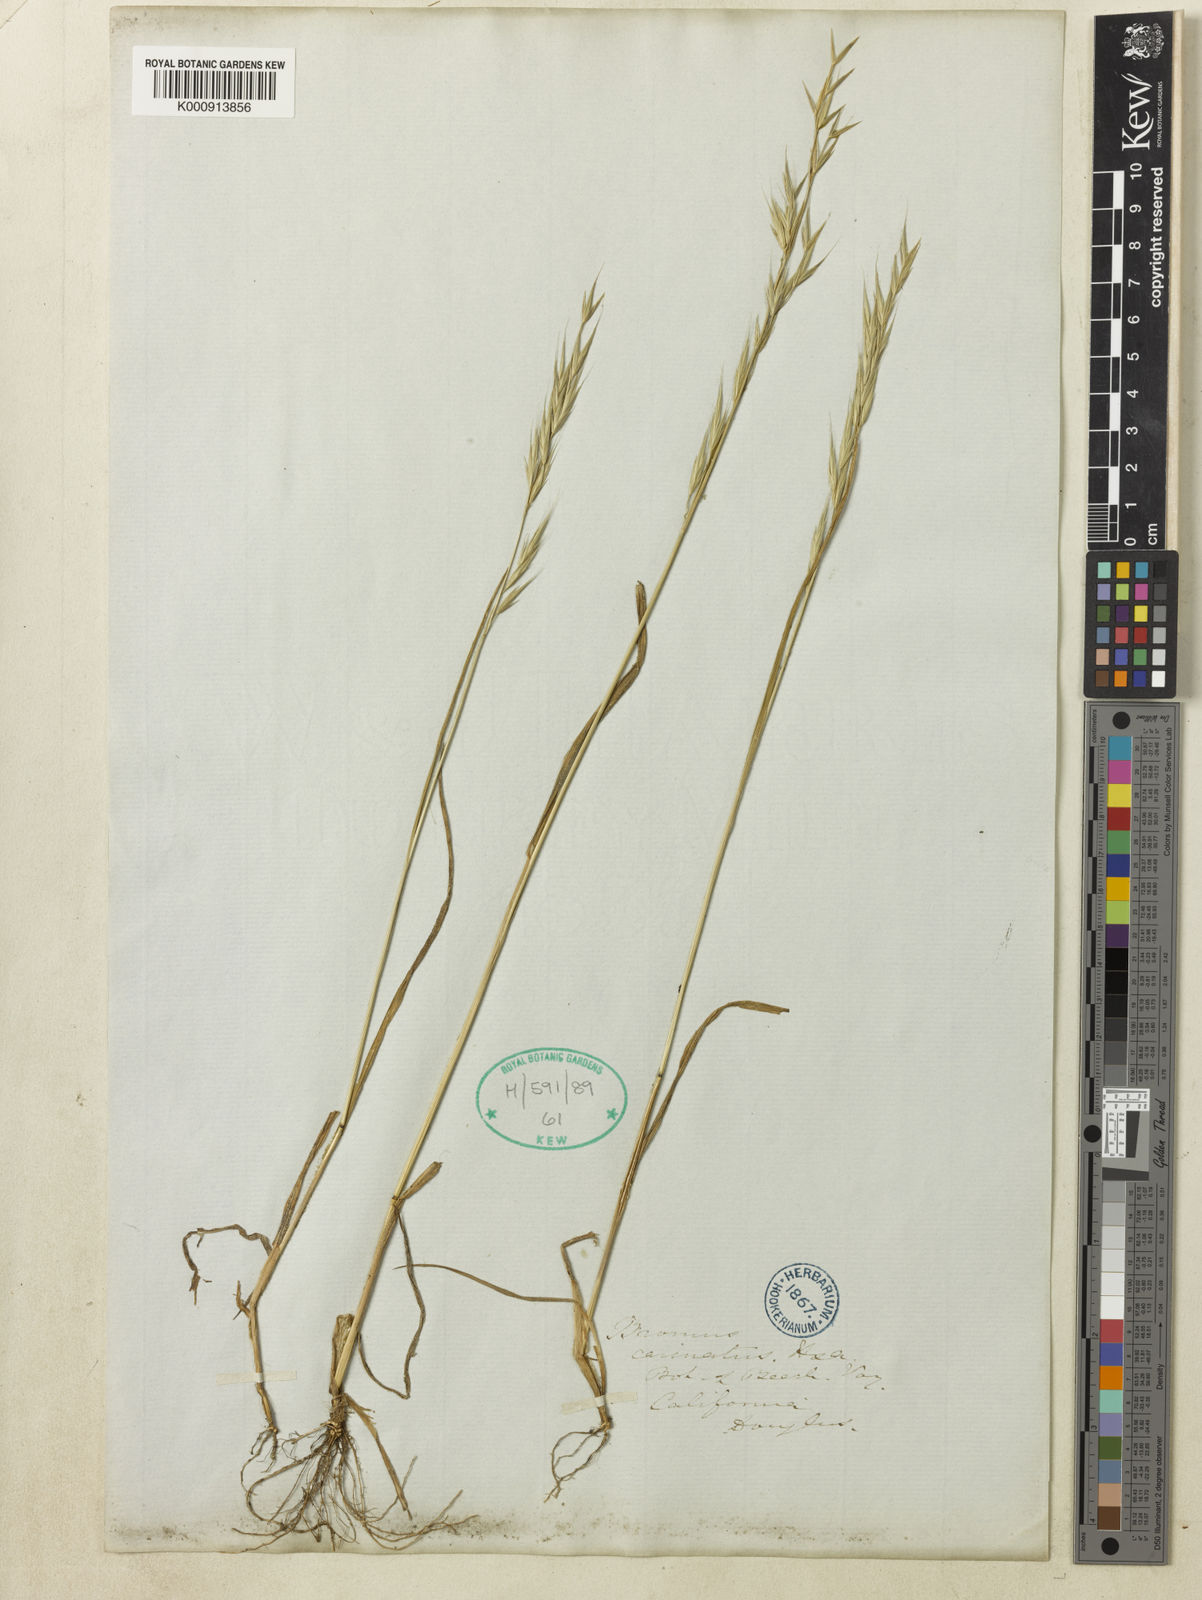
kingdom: Plantae
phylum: Tracheophyta
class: Liliopsida
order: Poales
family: Poaceae
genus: Bromus
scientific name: Bromus carinatus
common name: Mountain brome
